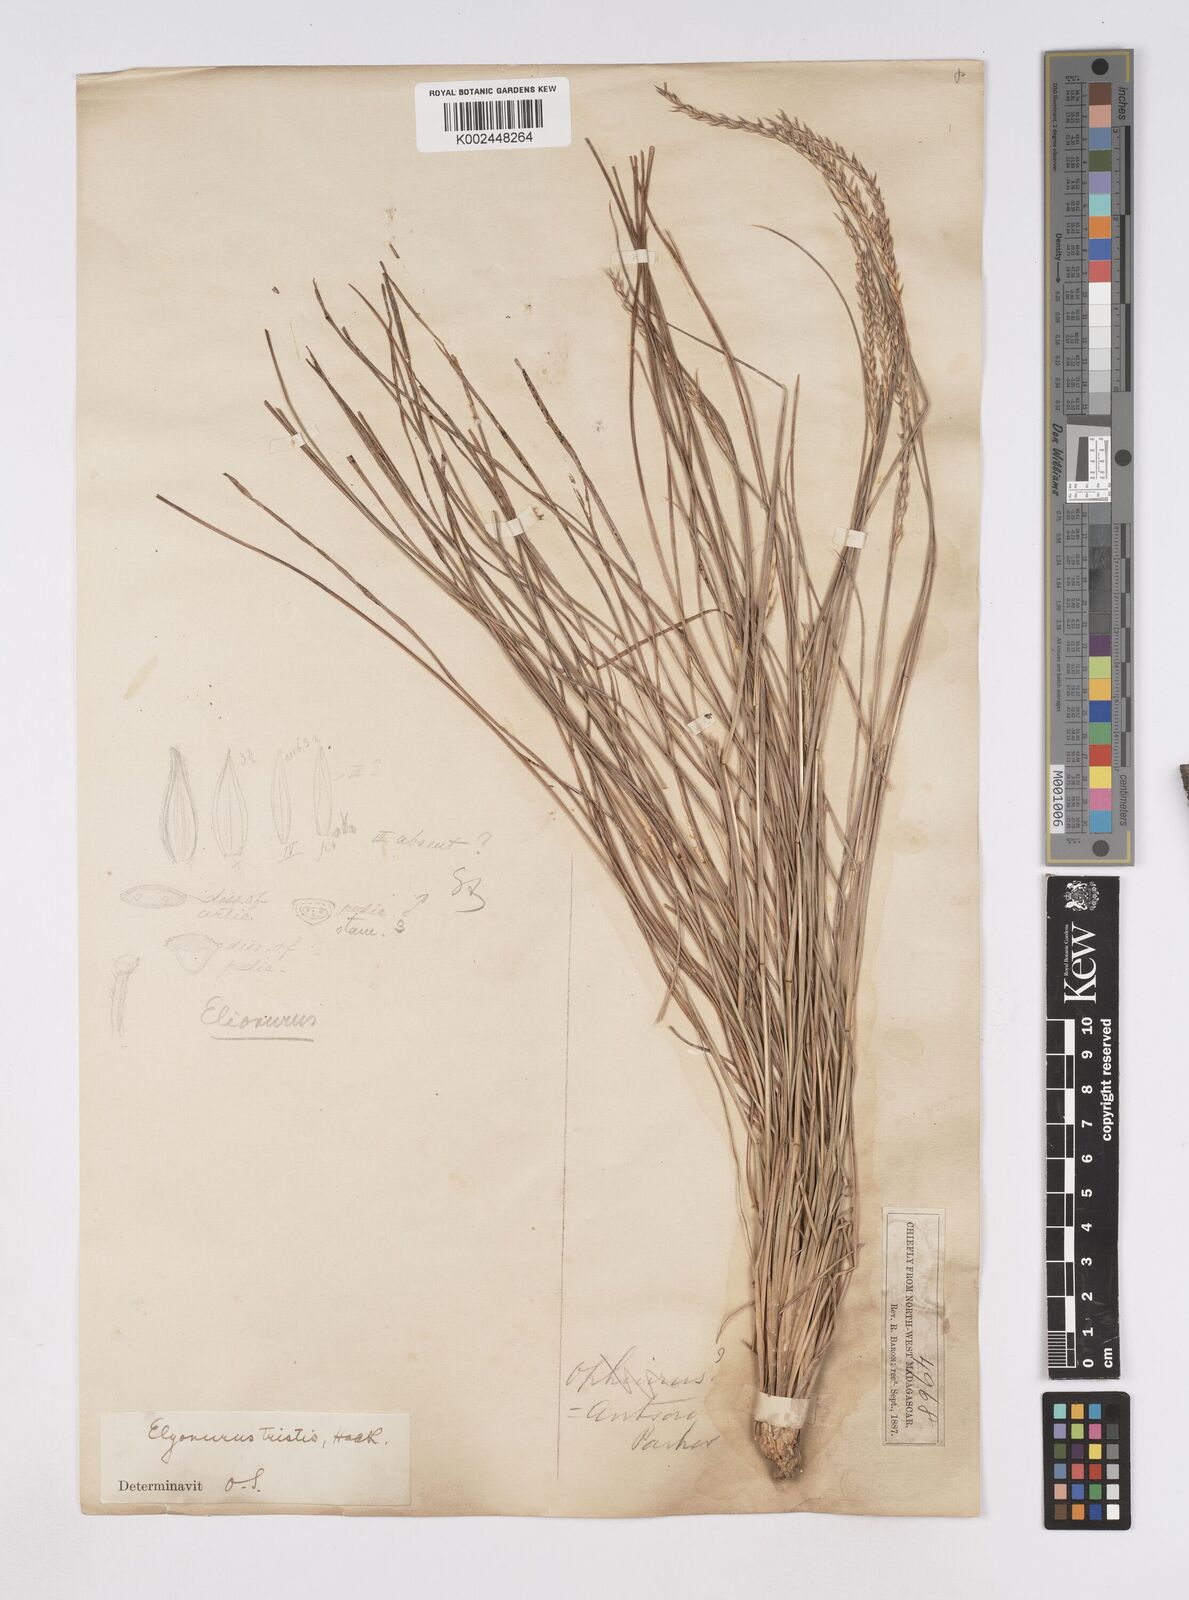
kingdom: Plantae
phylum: Tracheophyta
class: Liliopsida
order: Poales
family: Poaceae
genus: Elionurus
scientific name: Elionurus tristis
